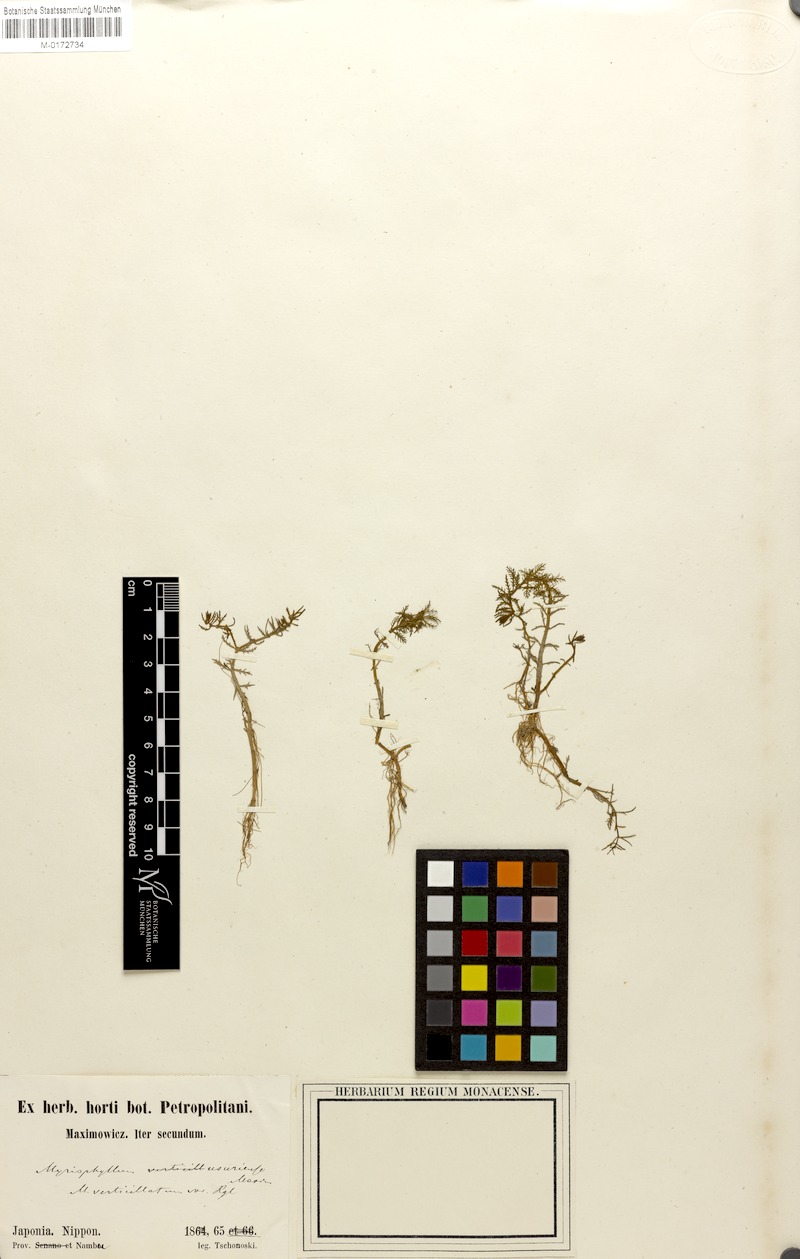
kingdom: Plantae
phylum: Tracheophyta
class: Magnoliopsida
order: Saxifragales
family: Haloragaceae
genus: Myriophyllum
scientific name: Myriophyllum ussuriense
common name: Asian water-milfoil
